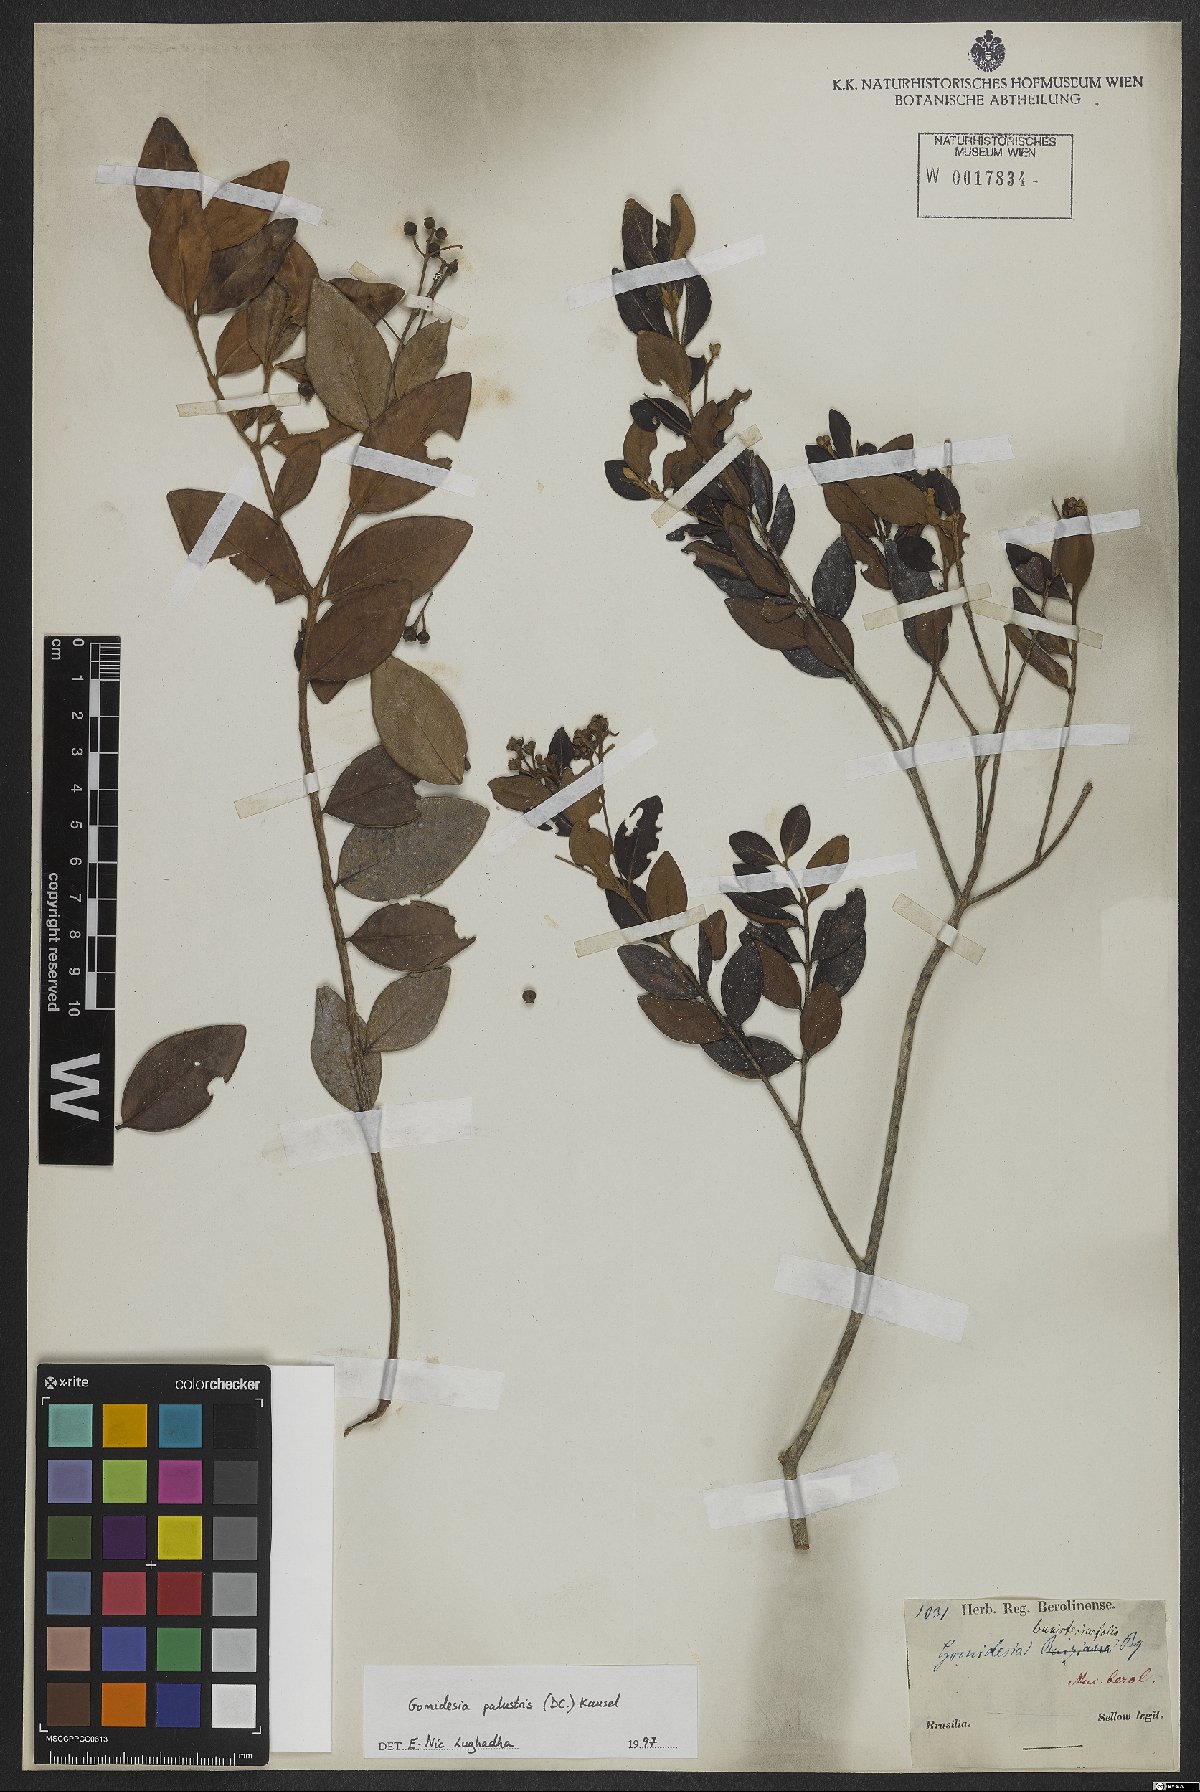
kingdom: Plantae
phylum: Tracheophyta
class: Magnoliopsida
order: Myrtales
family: Myrtaceae
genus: Myrcia
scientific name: Myrcia palustris
